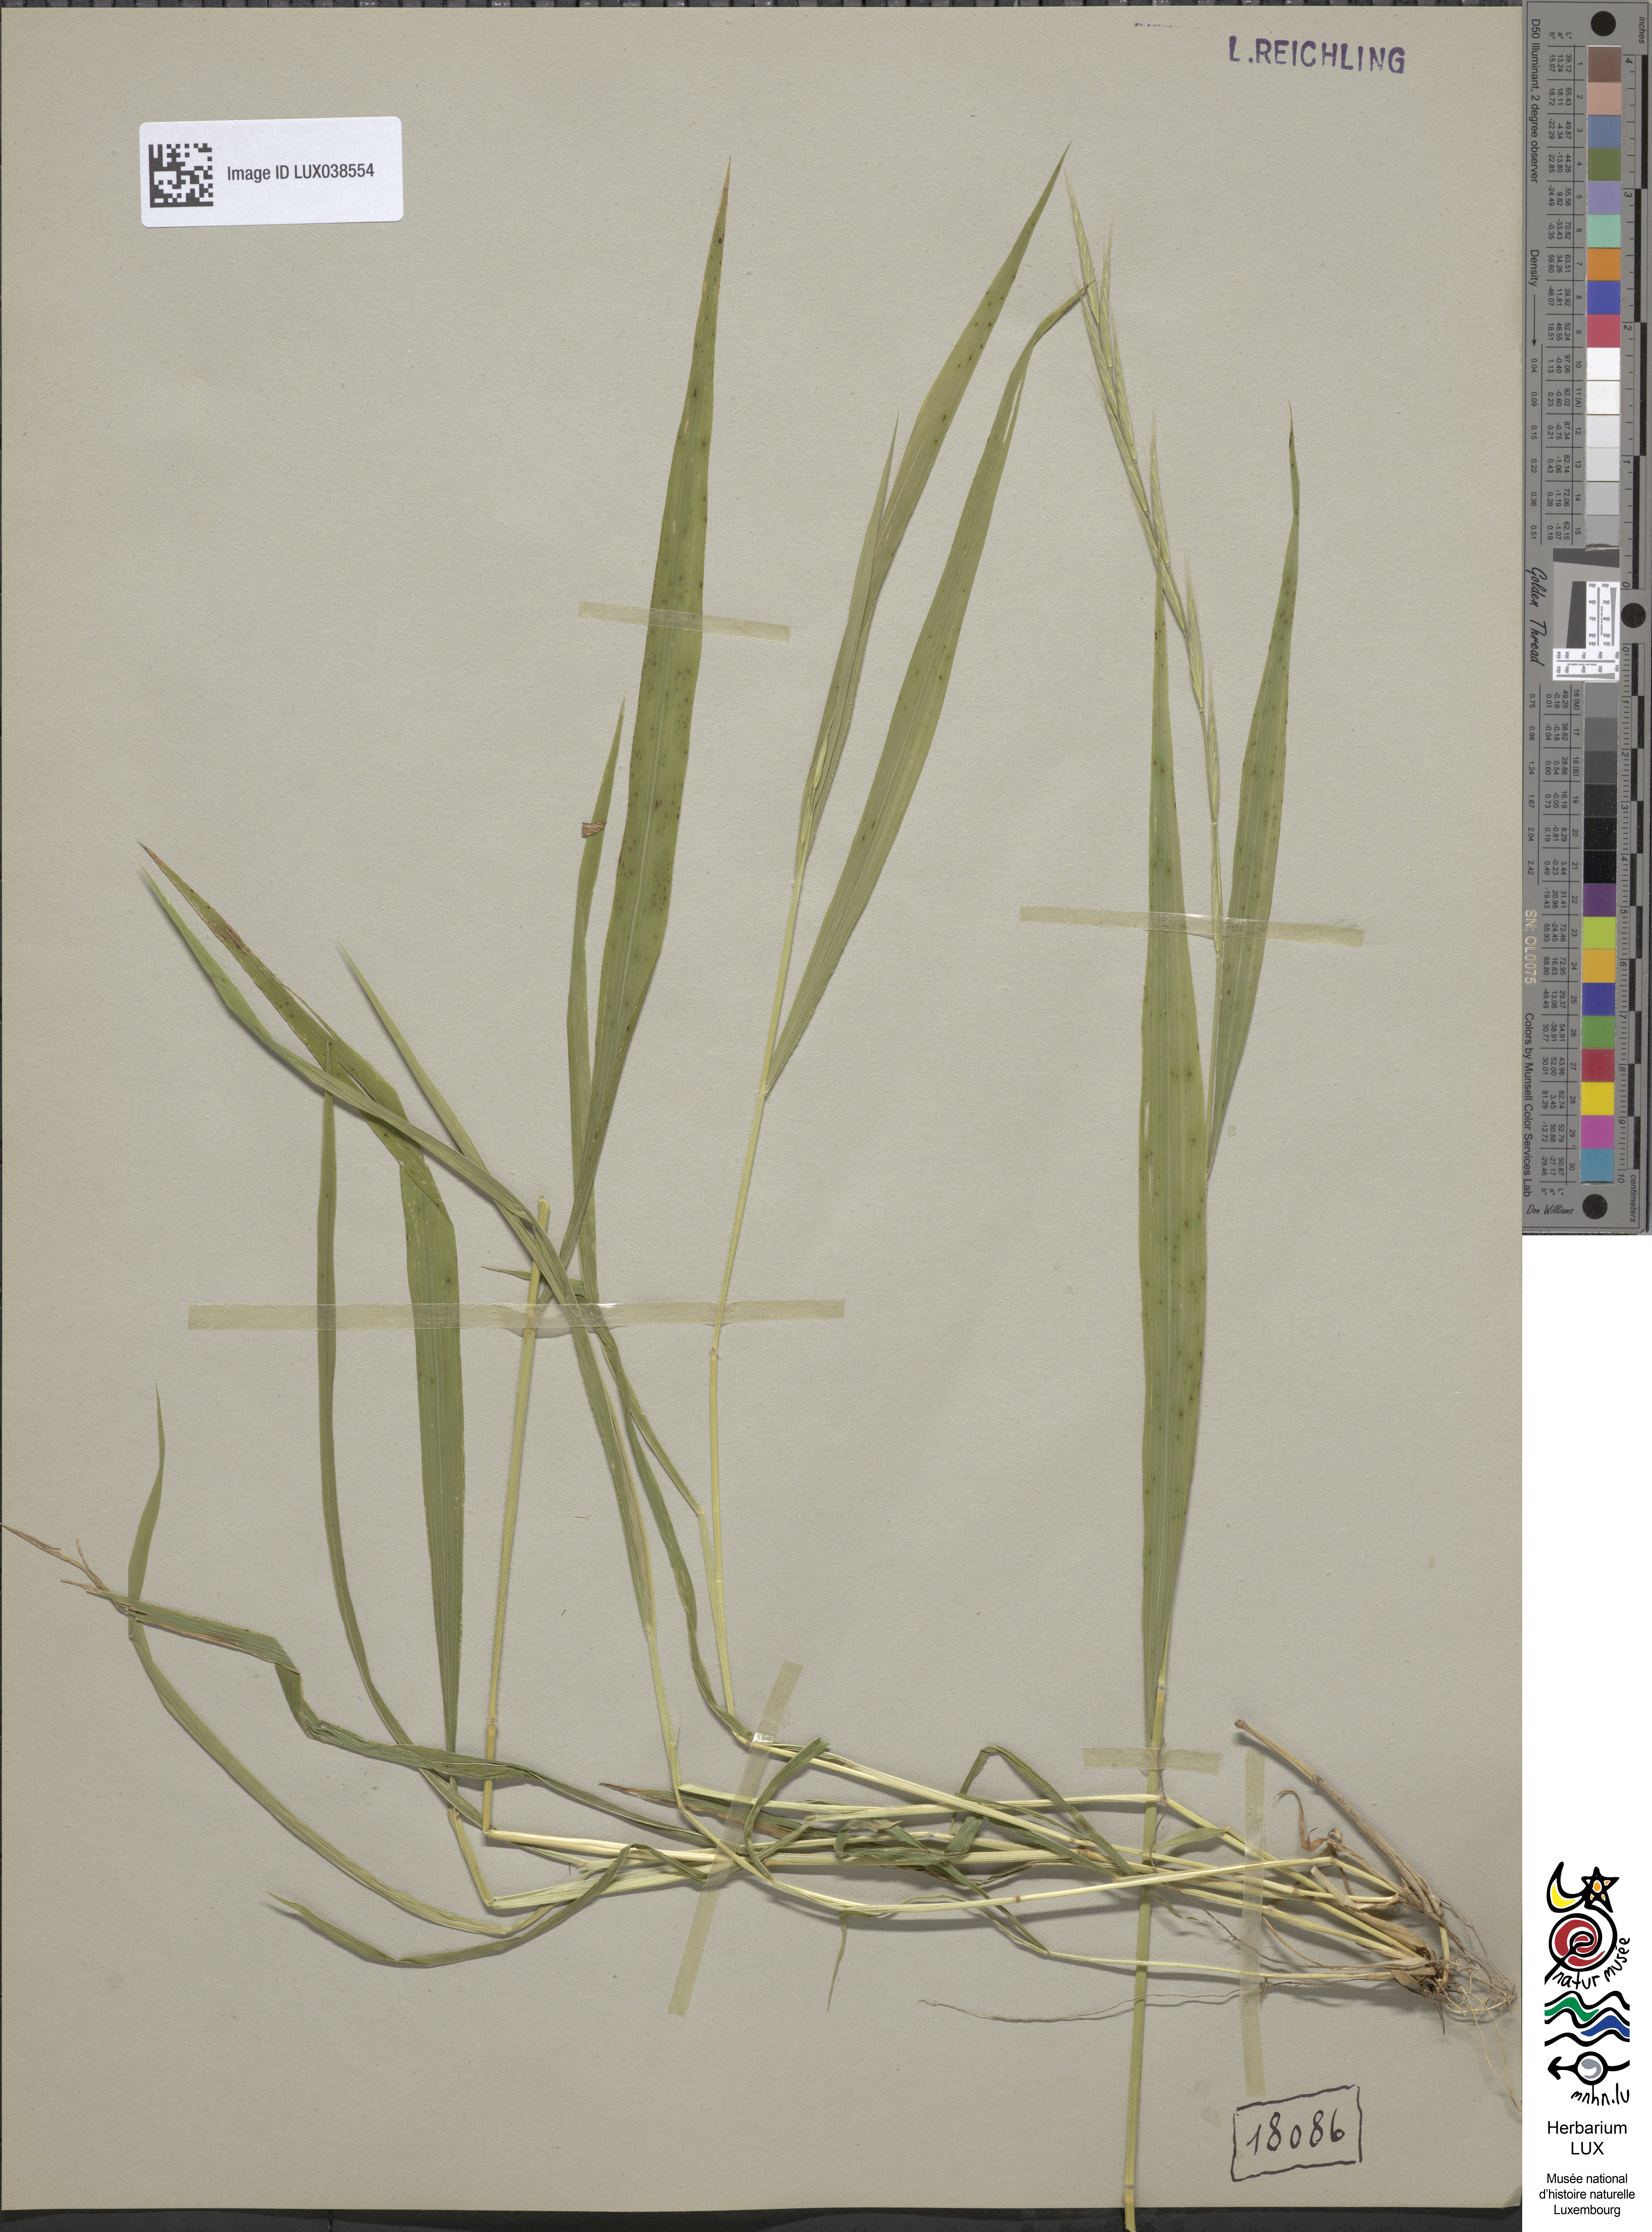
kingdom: Plantae
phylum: Tracheophyta
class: Liliopsida
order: Poales
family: Poaceae
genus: Brachypodium
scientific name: Brachypodium sylvaticum
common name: False-brome
